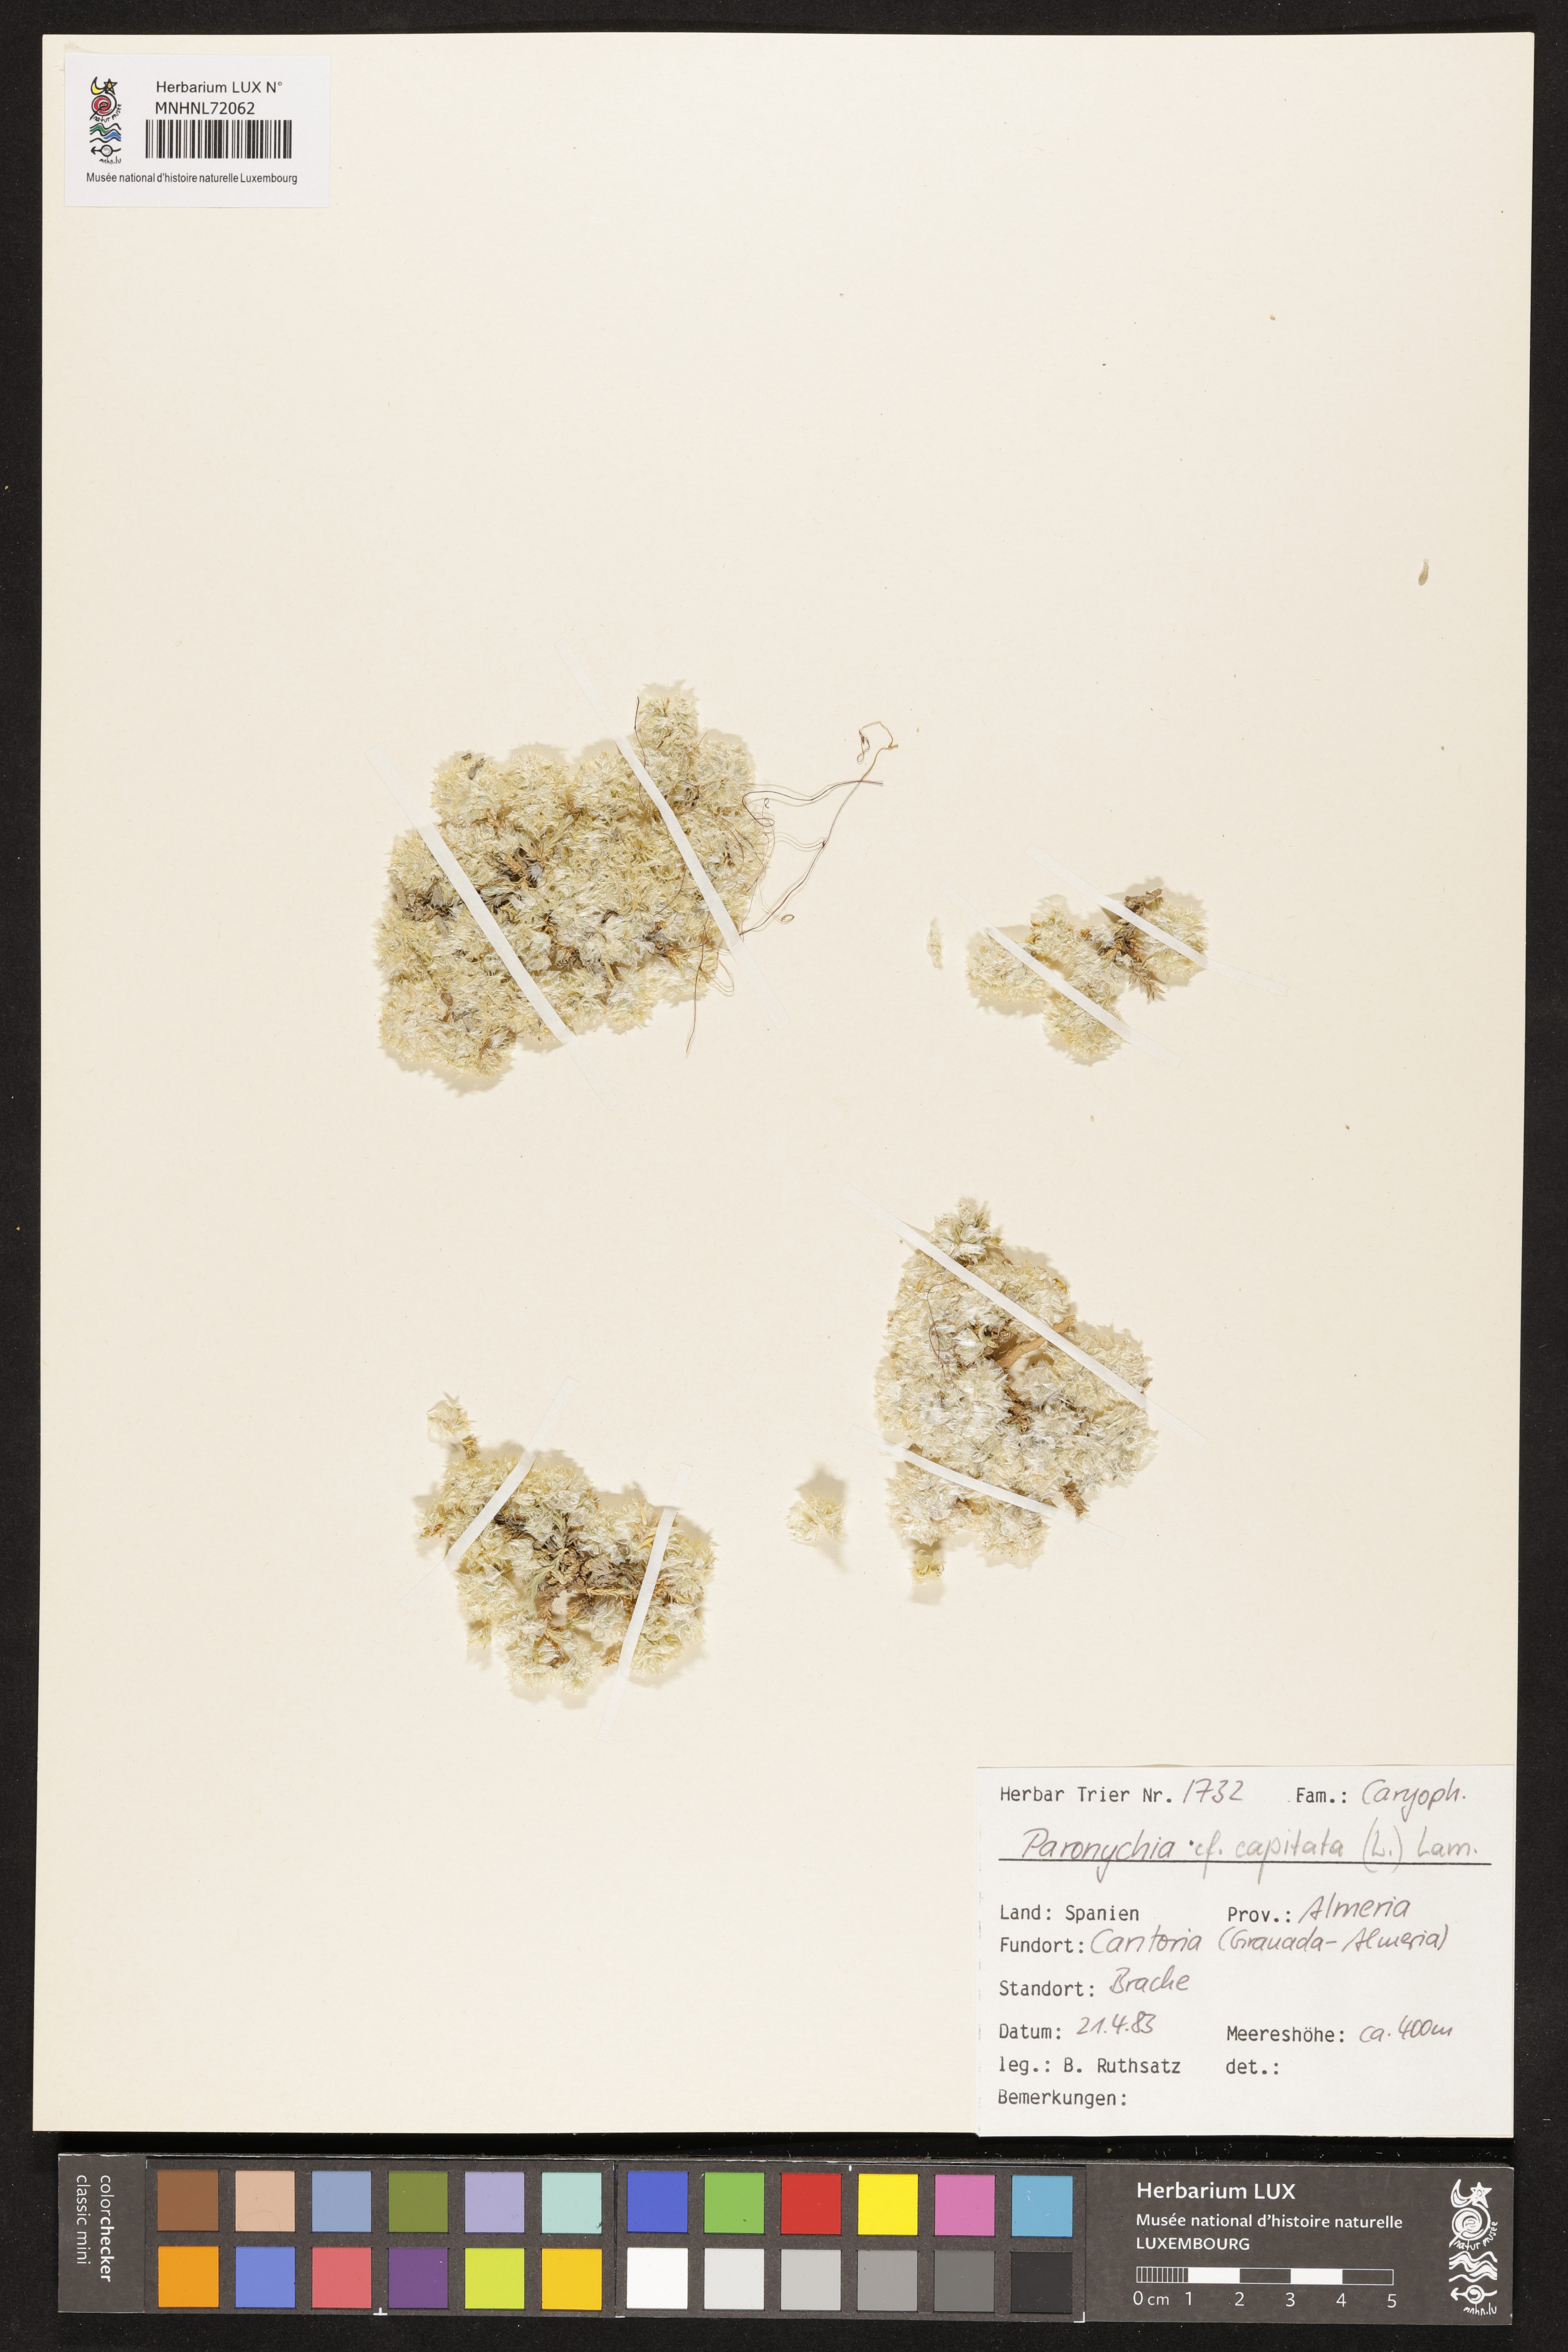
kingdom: Plantae
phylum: Tracheophyta
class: Magnoliopsida
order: Caryophyllales
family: Caryophyllaceae
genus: Paronychia
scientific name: Paronychia capitata
